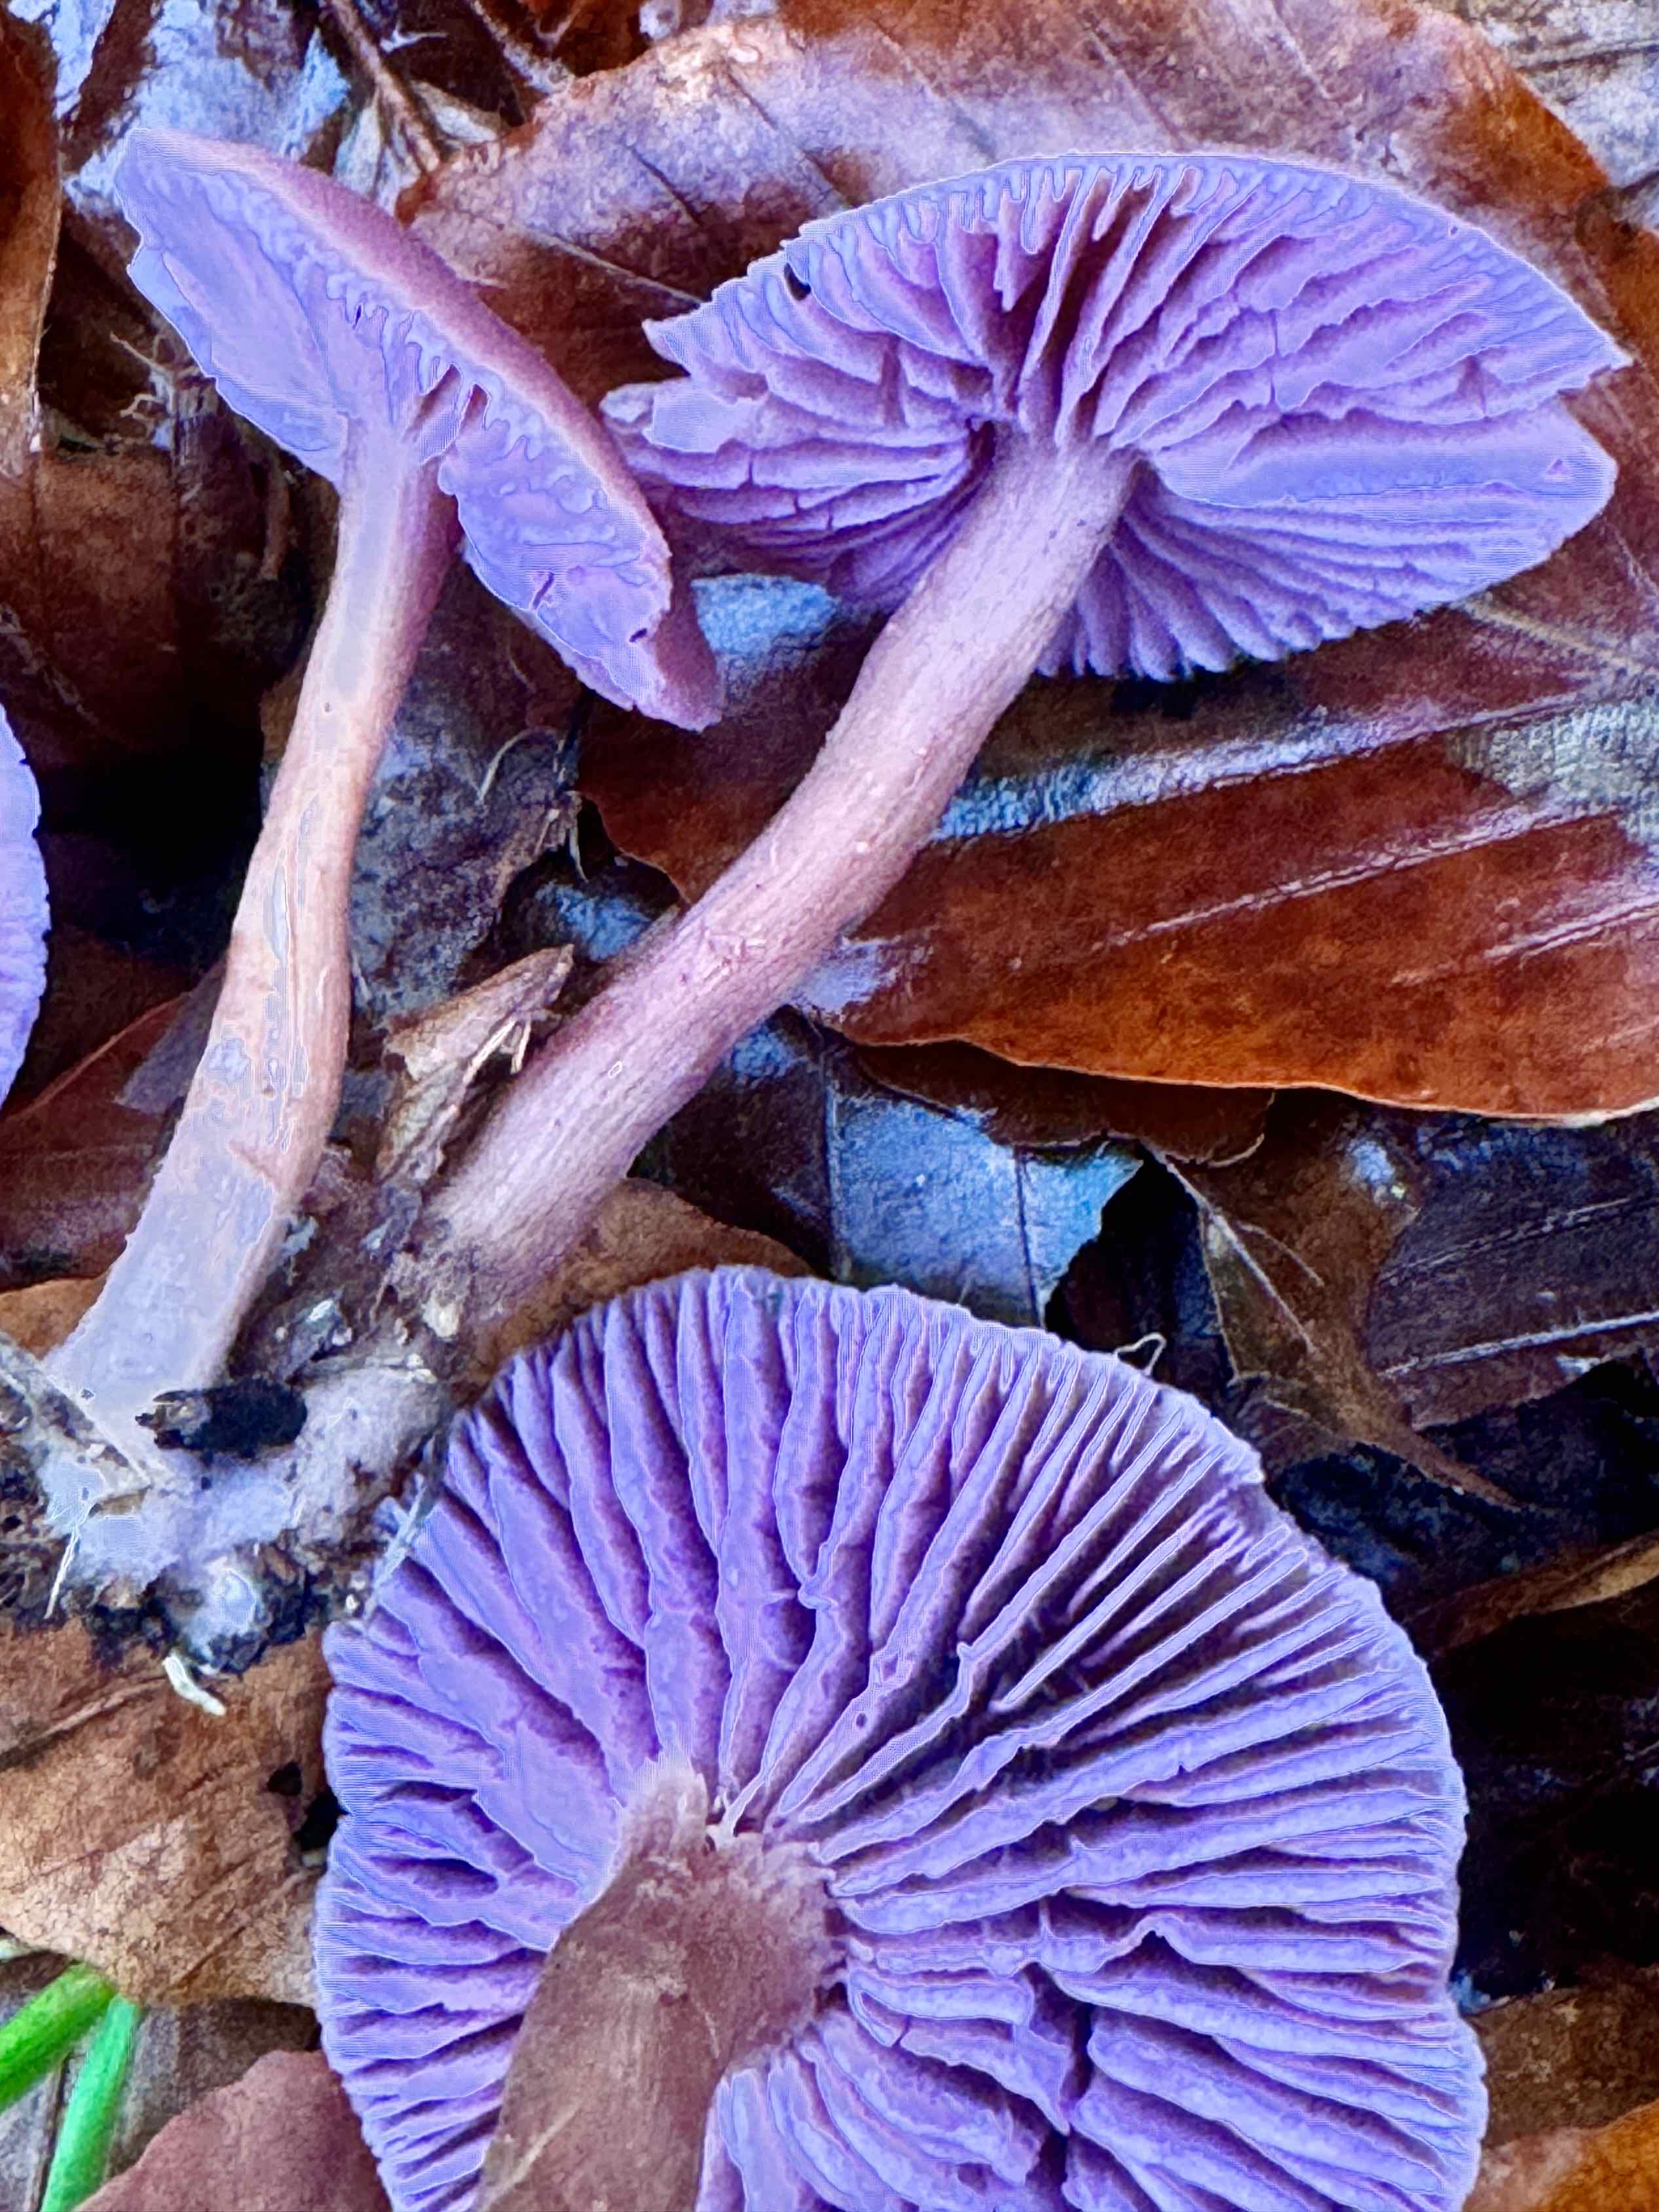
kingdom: Fungi
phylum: Basidiomycota
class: Agaricomycetes
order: Agaricales
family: Hydnangiaceae
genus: Laccaria
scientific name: Laccaria amethystina
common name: violet ametysthat
